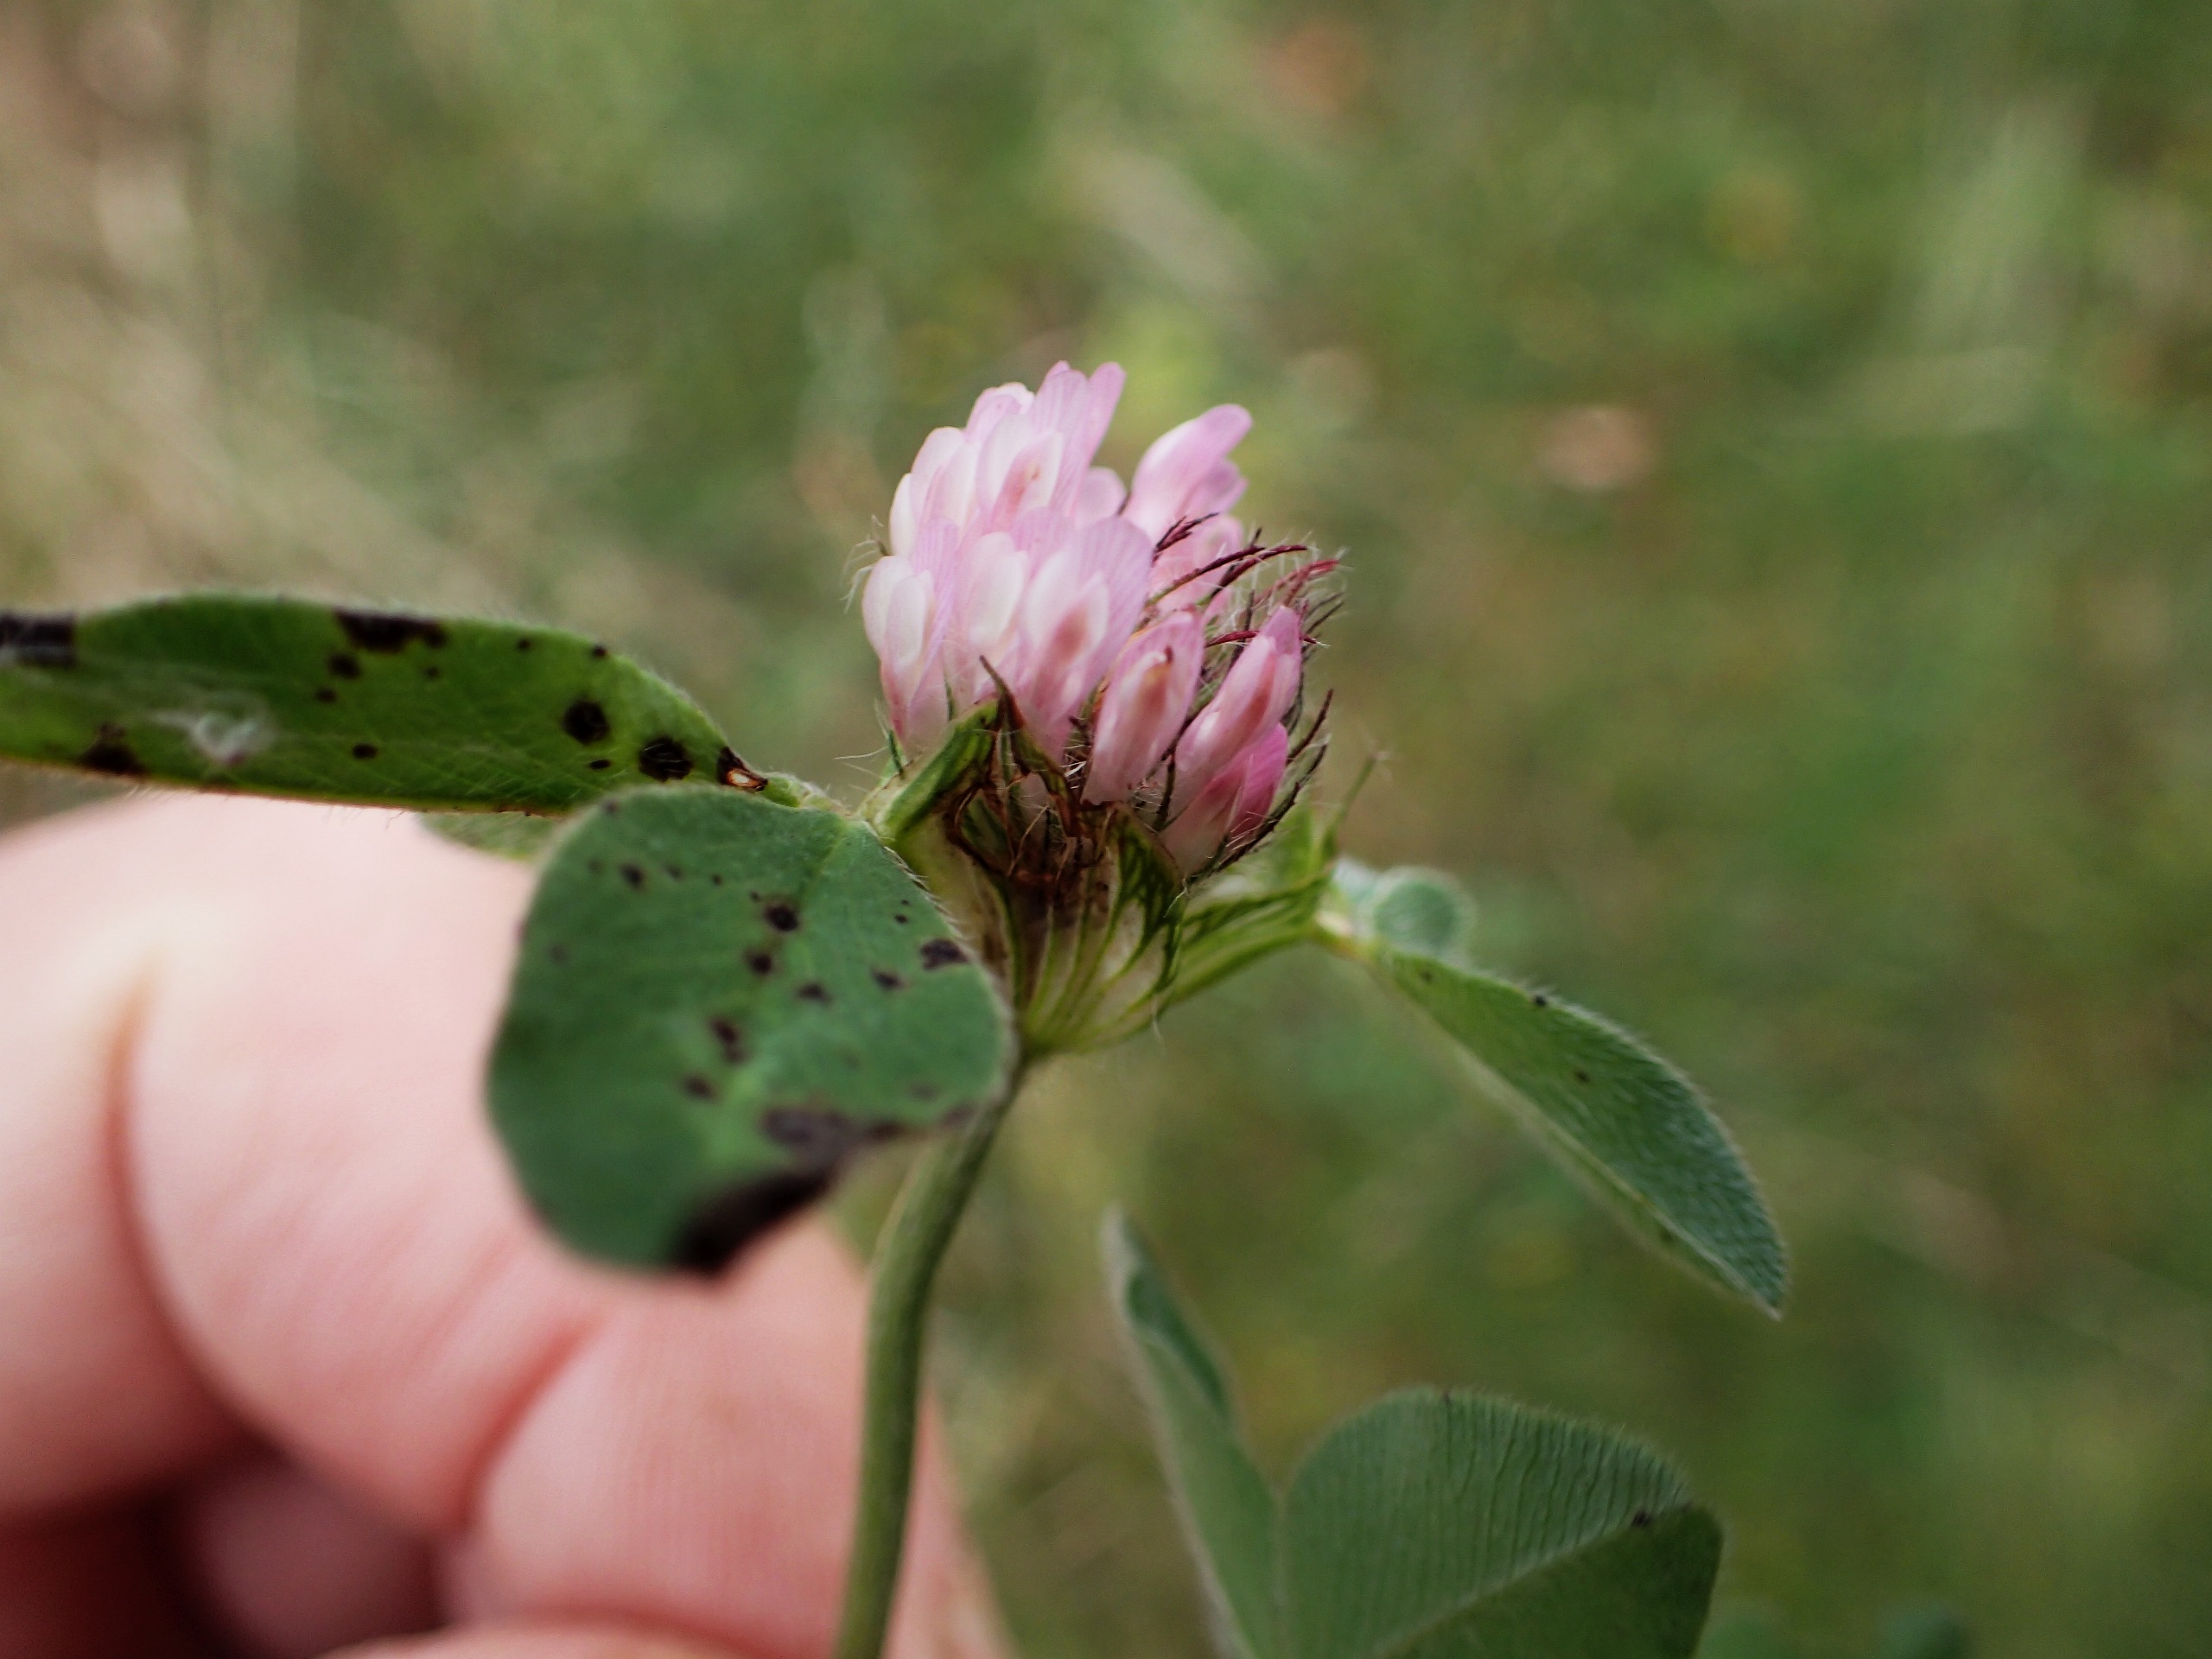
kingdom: Plantae
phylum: Tracheophyta
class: Magnoliopsida
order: Fabales
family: Fabaceae
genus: Trifolium
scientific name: Trifolium pratense
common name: Rød-kløver
